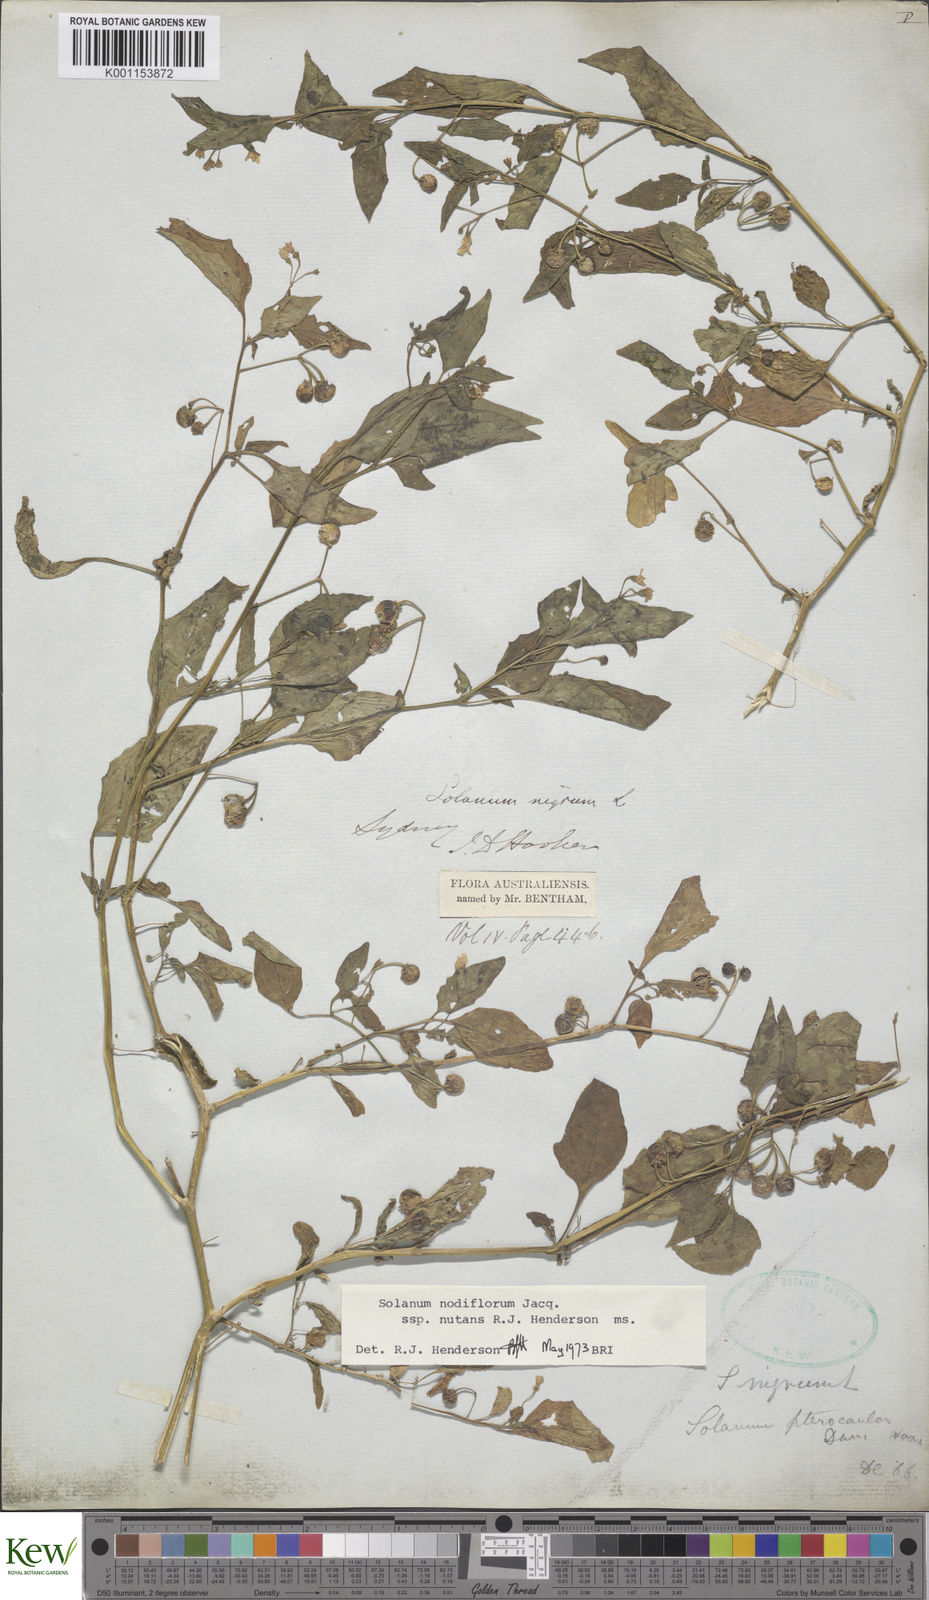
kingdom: Plantae
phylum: Tracheophyta
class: Magnoliopsida
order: Solanales
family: Solanaceae
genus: Solanum
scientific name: Solanum americanum
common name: American black nightshade
